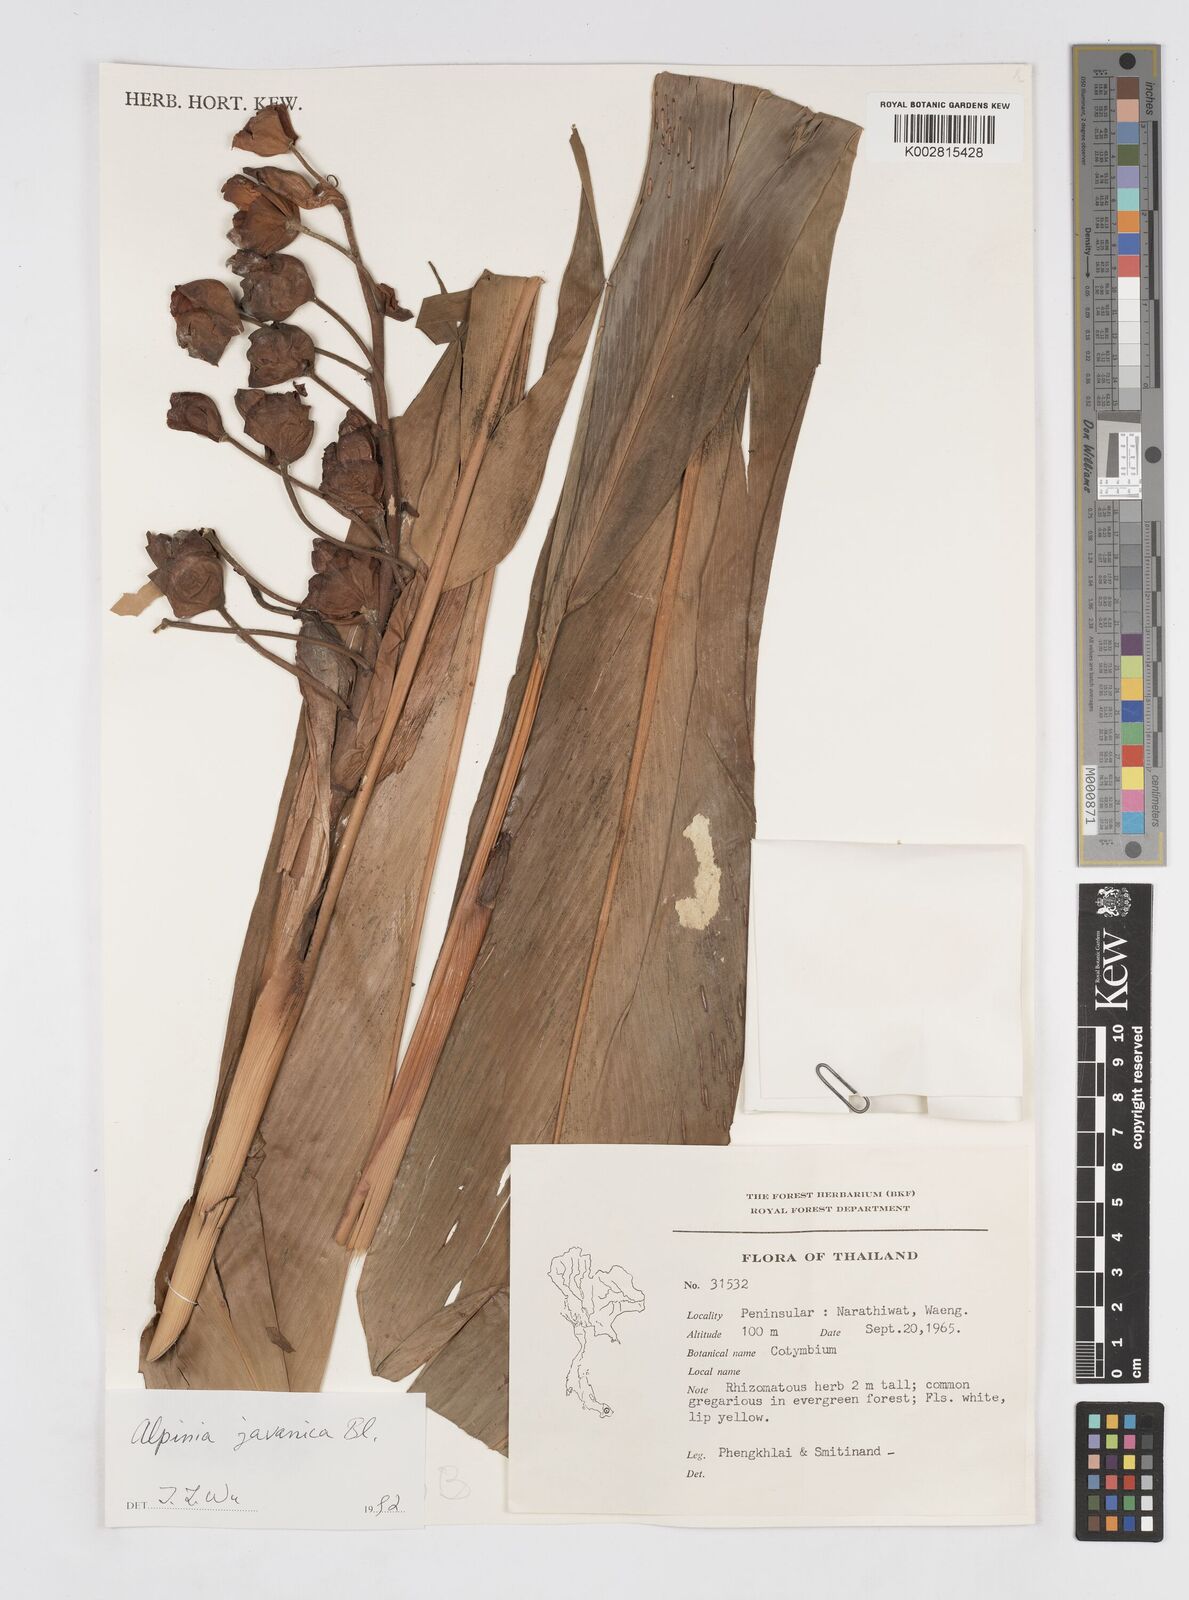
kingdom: Plantae
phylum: Tracheophyta
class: Liliopsida
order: Zingiberales
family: Zingiberaceae
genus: Alpinia
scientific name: Alpinia javanica
